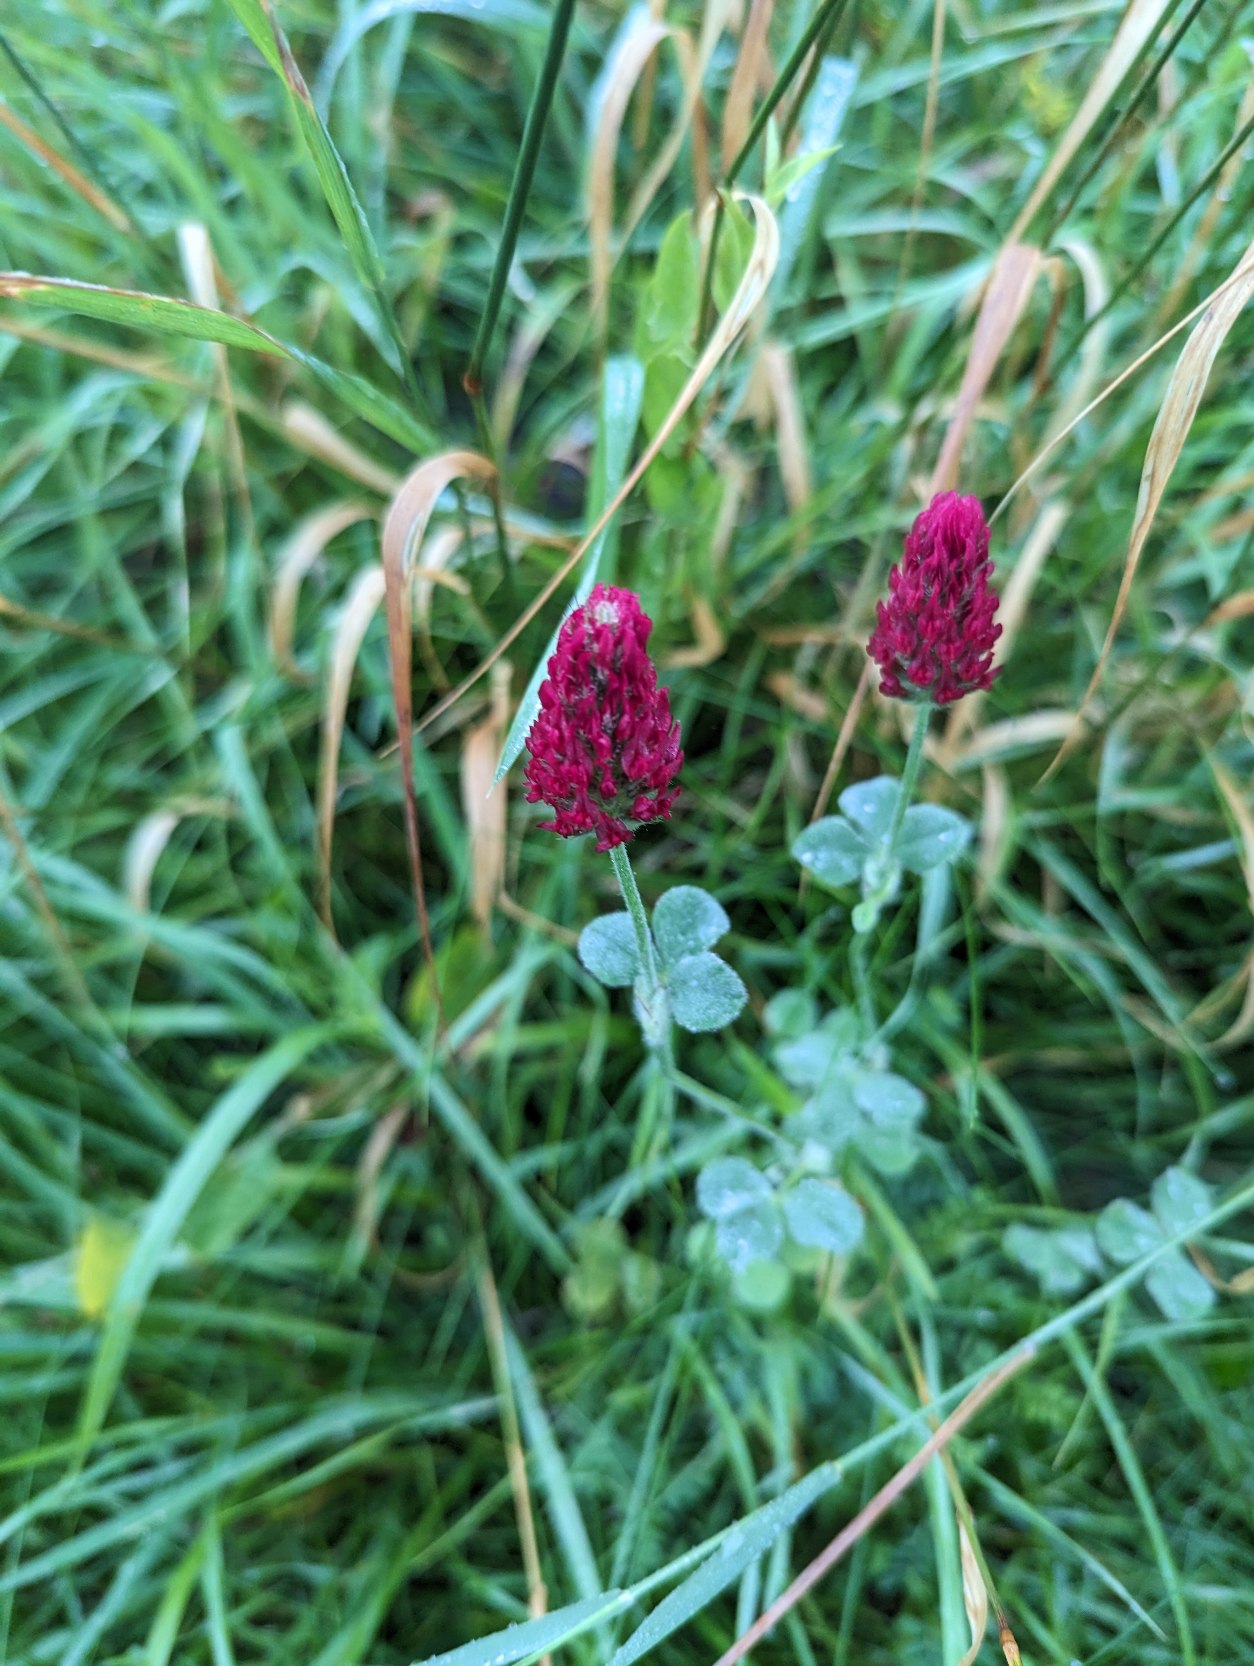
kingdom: Plantae
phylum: Tracheophyta
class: Magnoliopsida
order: Fabales
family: Fabaceae
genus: Trifolium
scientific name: Trifolium incarnatum
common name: Blod-kløver
